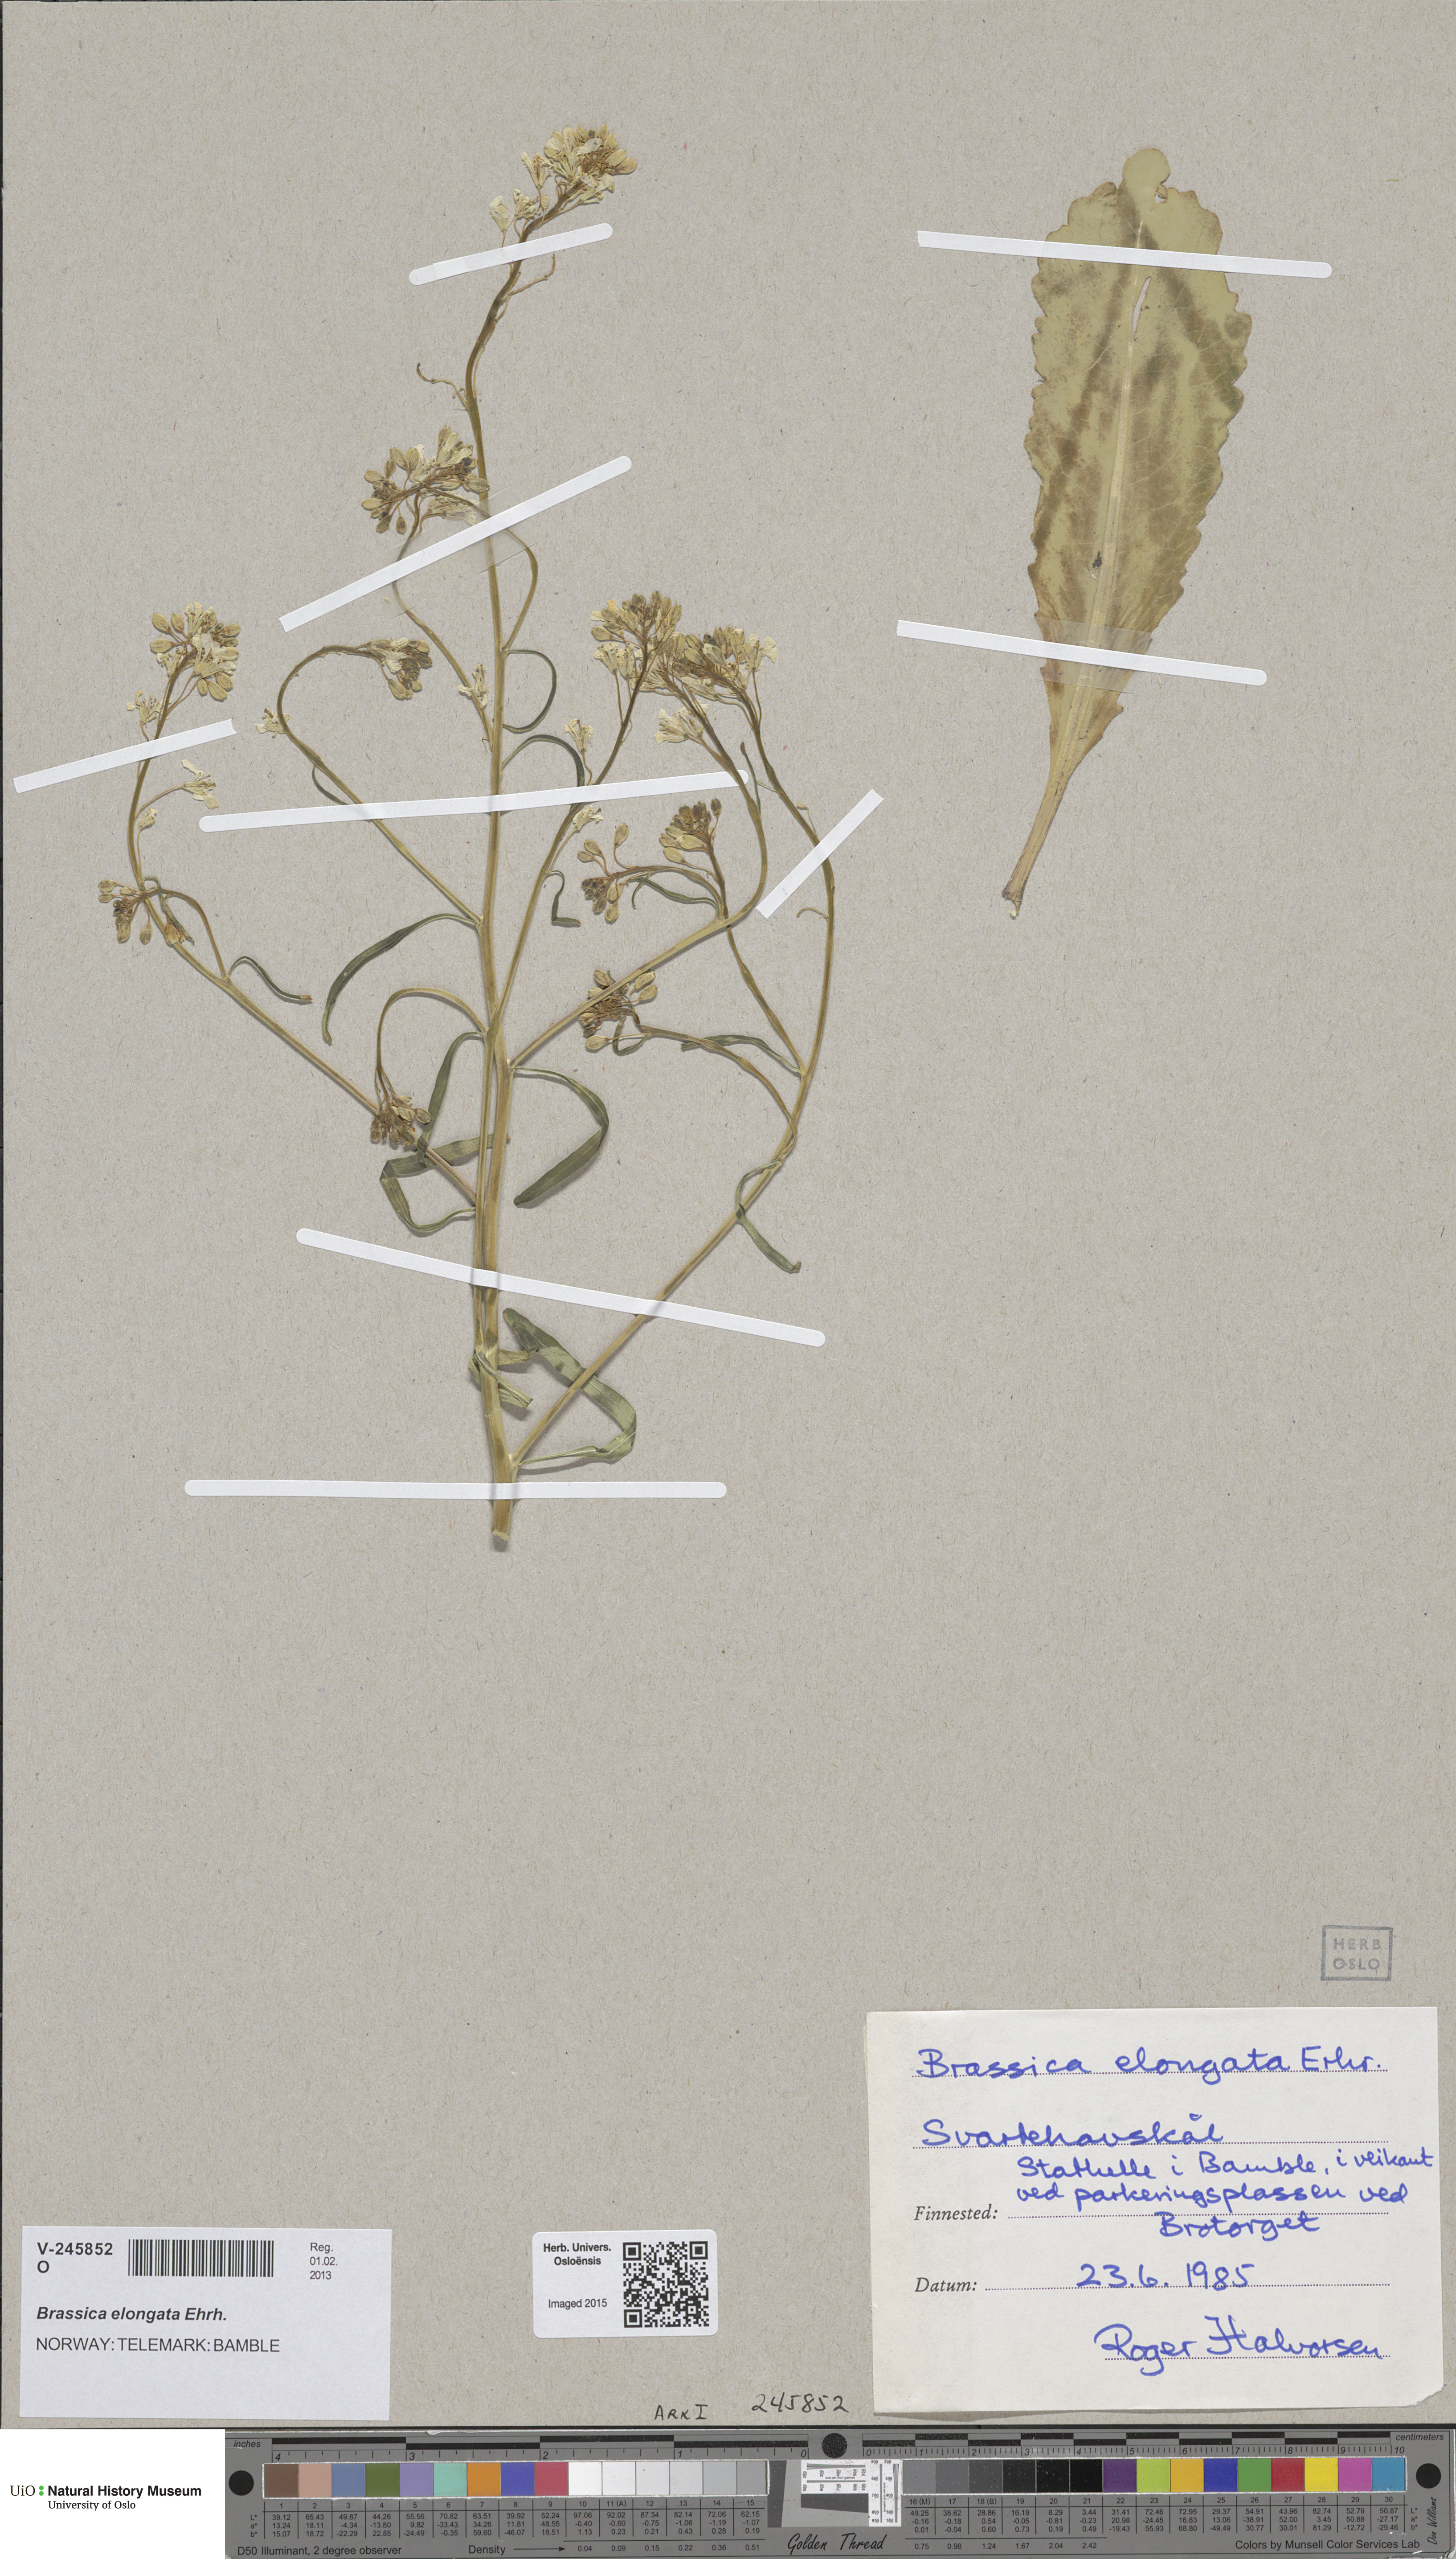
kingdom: Plantae
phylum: Tracheophyta
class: Magnoliopsida
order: Brassicales
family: Brassicaceae
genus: Brassica
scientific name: Brassica elongata
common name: Long-stalked rape
